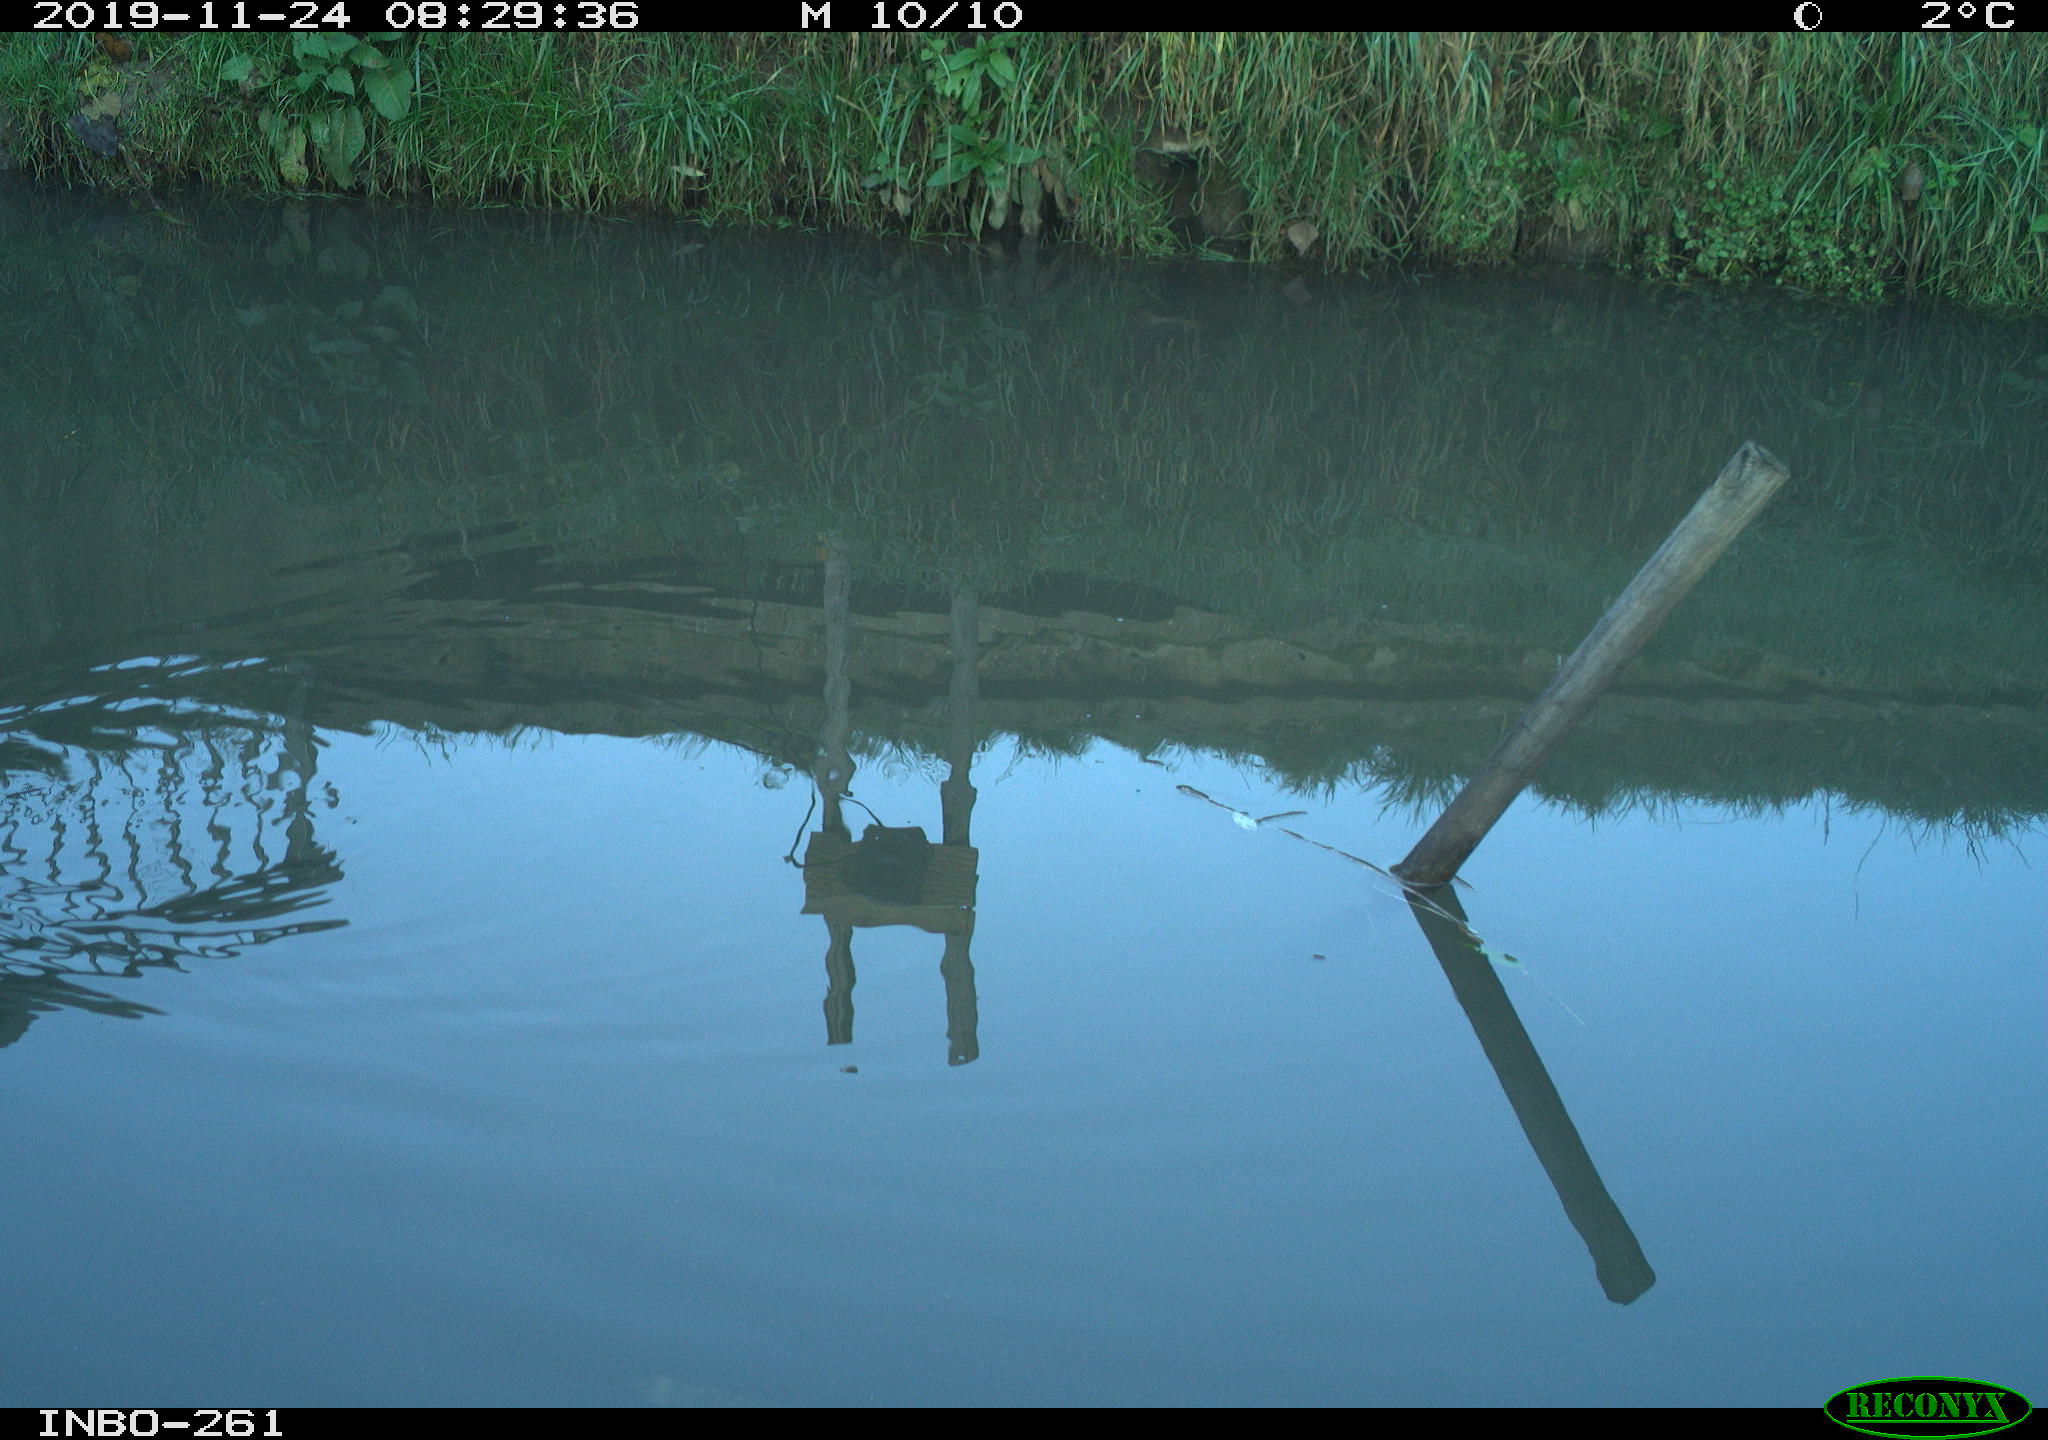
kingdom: Animalia
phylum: Chordata
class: Aves
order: Gruiformes
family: Rallidae
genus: Gallinula
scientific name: Gallinula chloropus
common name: Common moorhen
